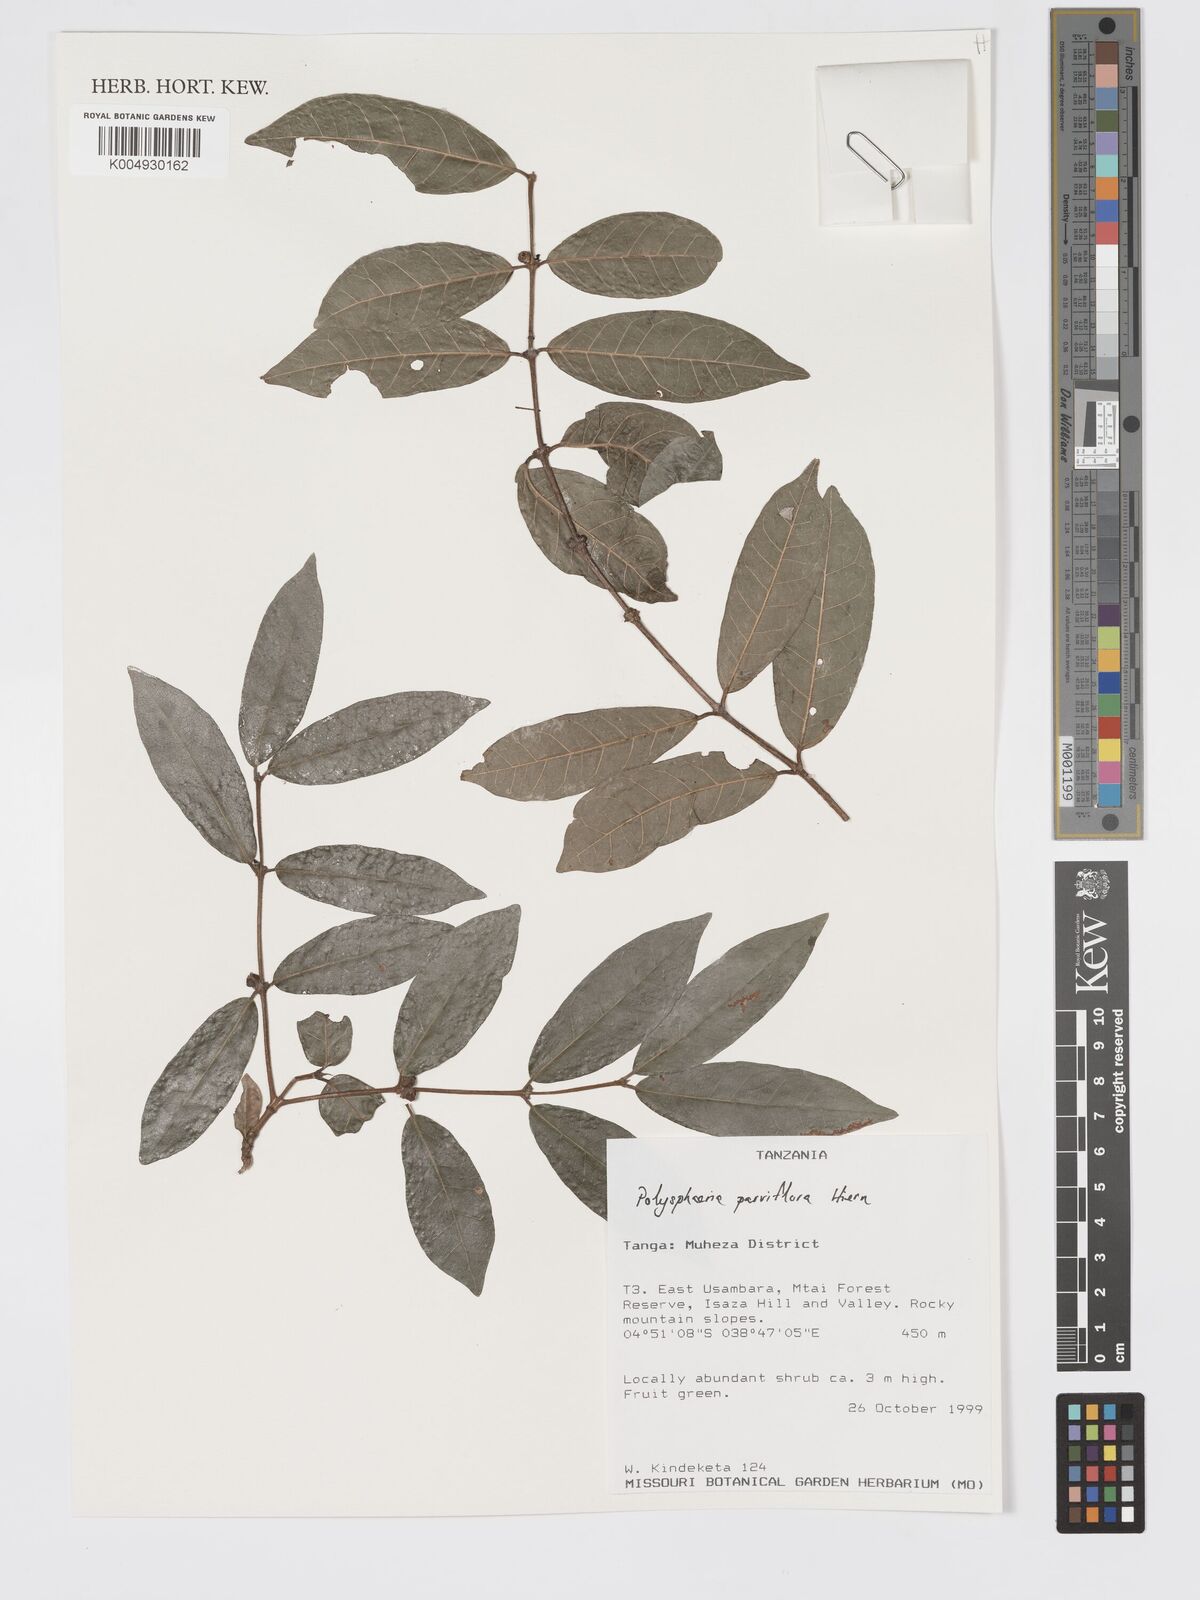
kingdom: Plantae
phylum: Tracheophyta
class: Magnoliopsida
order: Gentianales
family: Rubiaceae
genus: Polysphaeria
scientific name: Polysphaeria parvifolia
